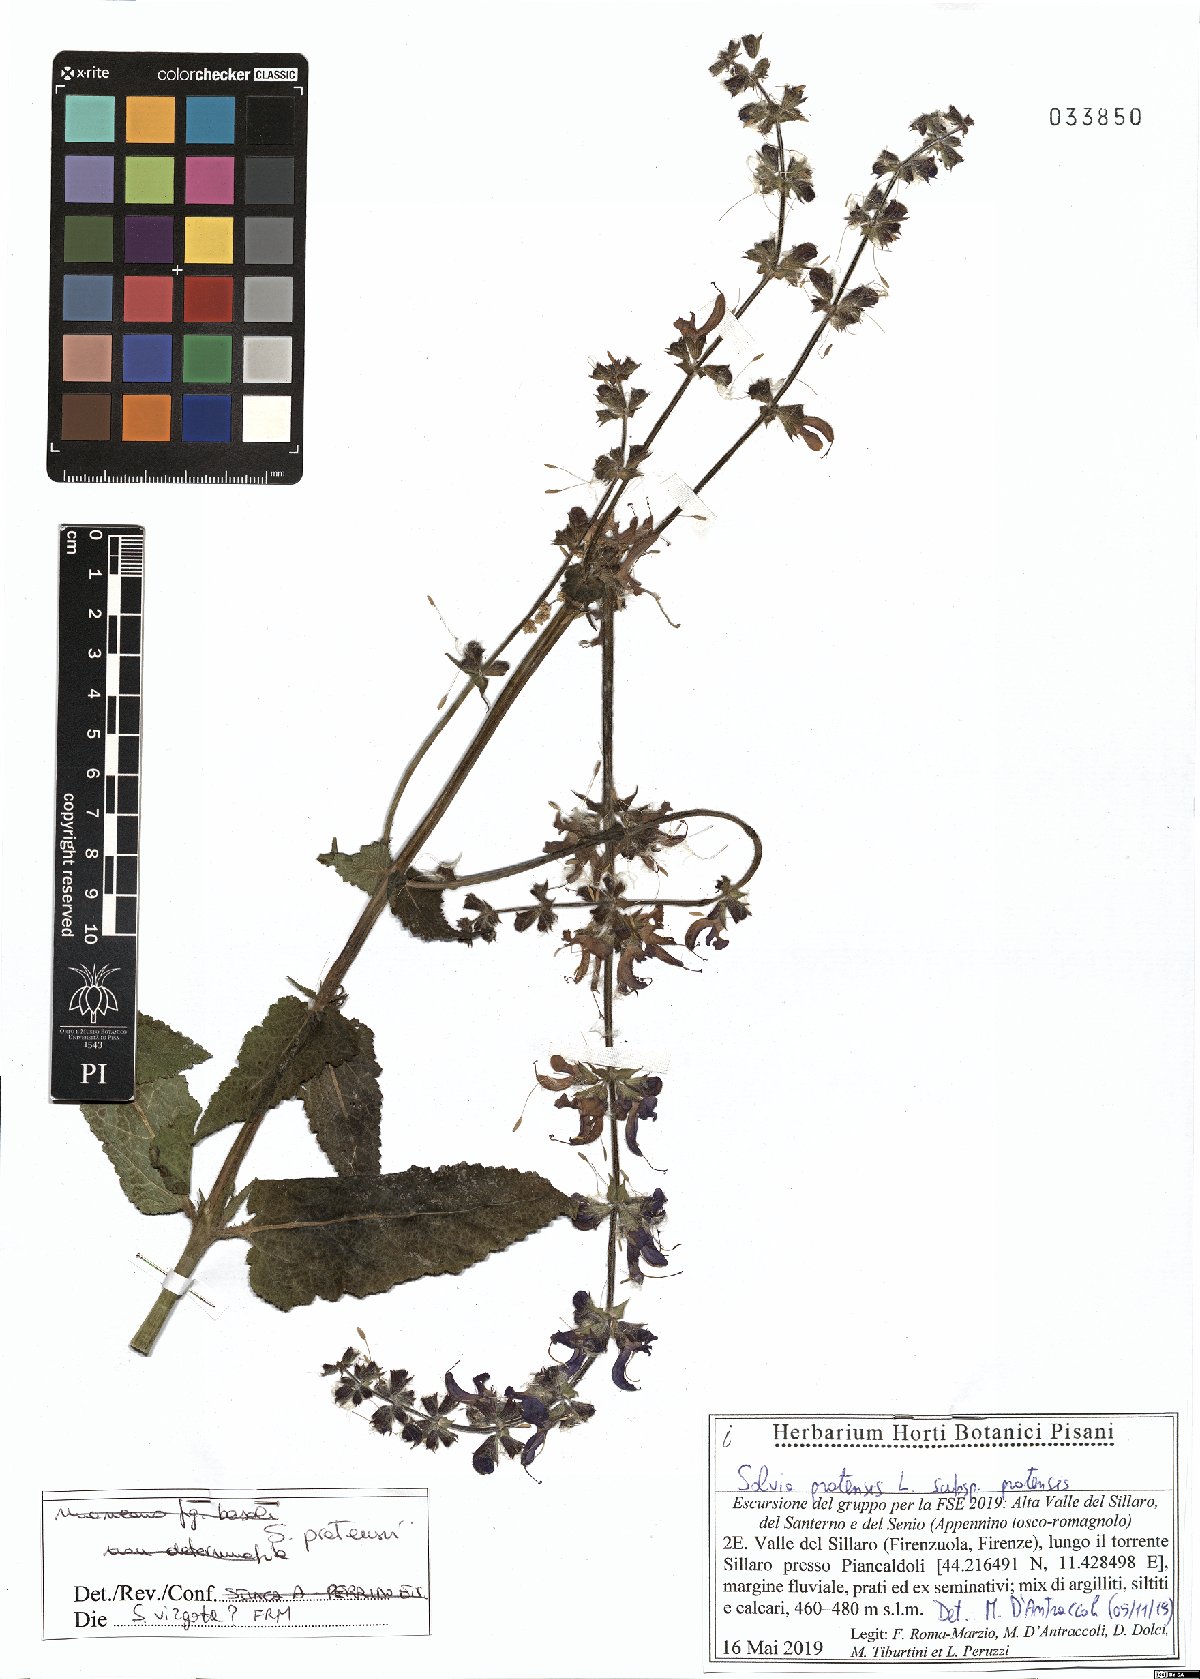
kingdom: Plantae
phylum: Tracheophyta
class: Magnoliopsida
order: Lamiales
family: Lamiaceae
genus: Salvia
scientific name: Salvia pratensis
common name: Meadow sage
